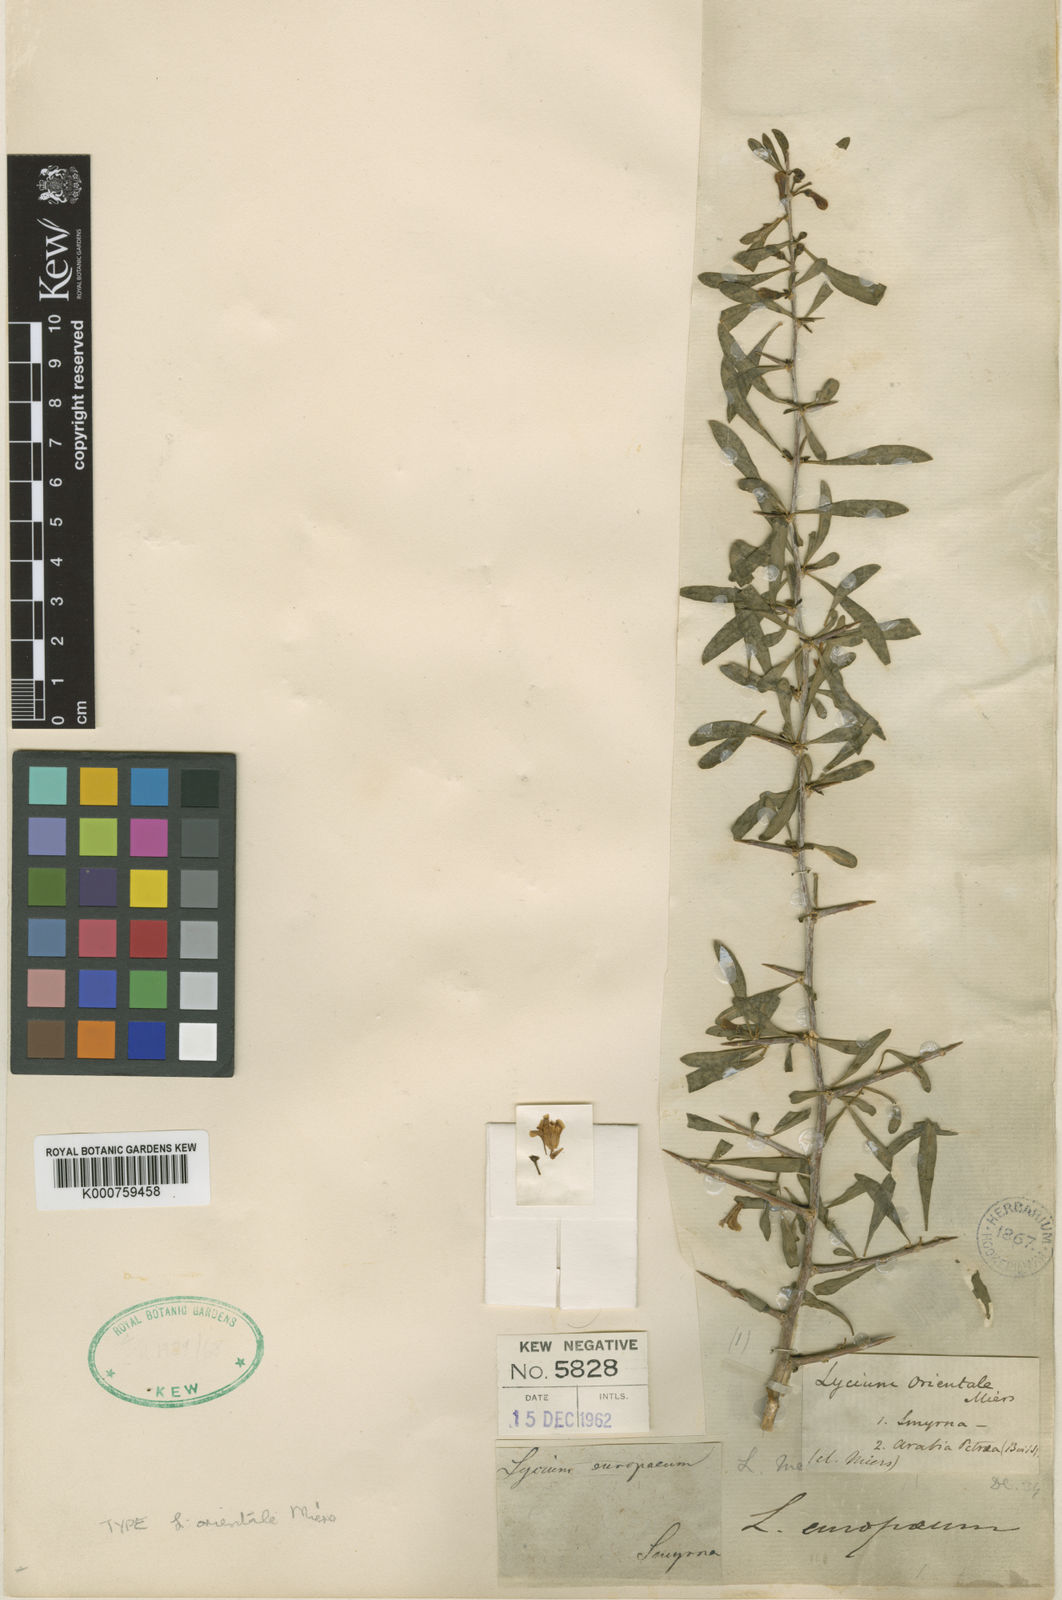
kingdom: Plantae
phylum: Tracheophyta
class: Magnoliopsida
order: Solanales
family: Solanaceae
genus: Lycium
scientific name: Lycium europaeum
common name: Boxthorn
